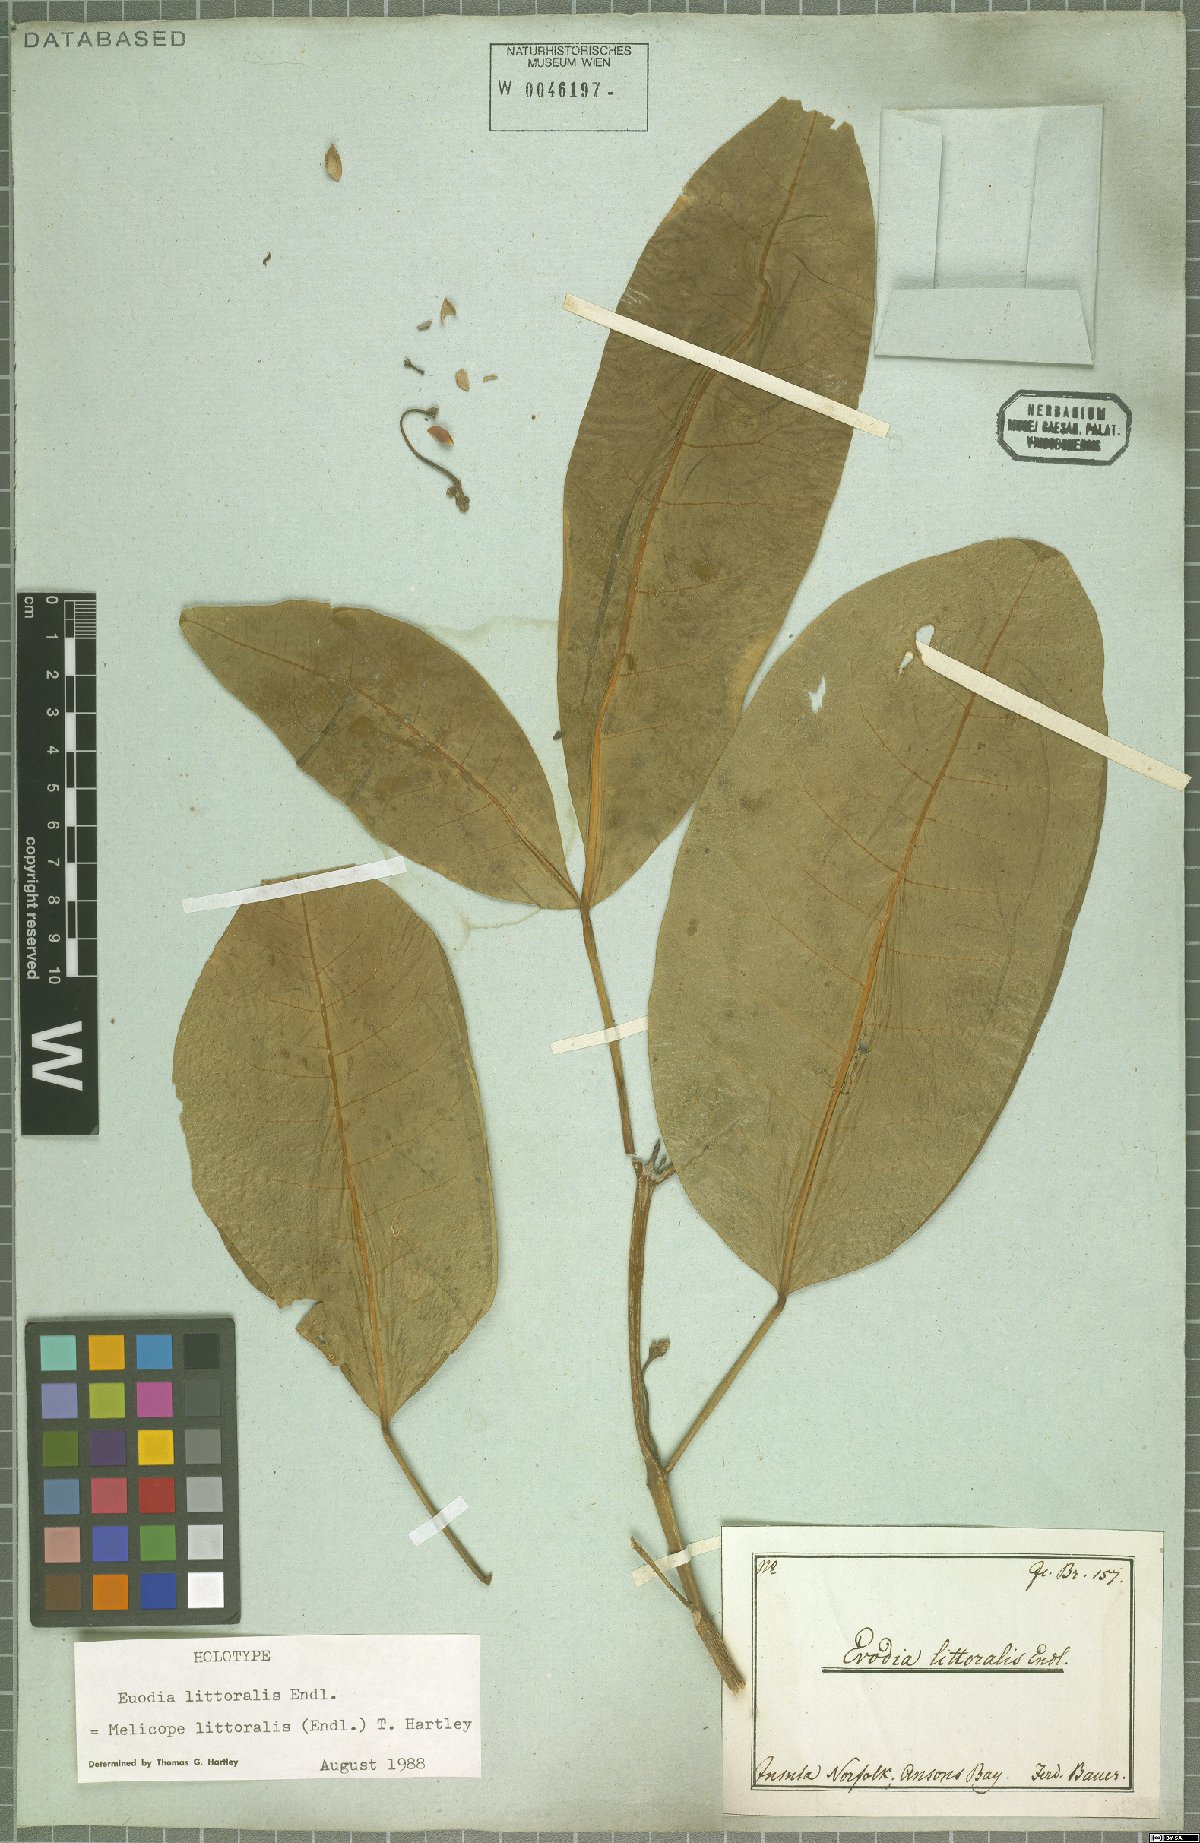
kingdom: Plantae
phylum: Tracheophyta
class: Magnoliopsida
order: Sapindales
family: Rutaceae
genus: Melicope
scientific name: Melicope littoralis
